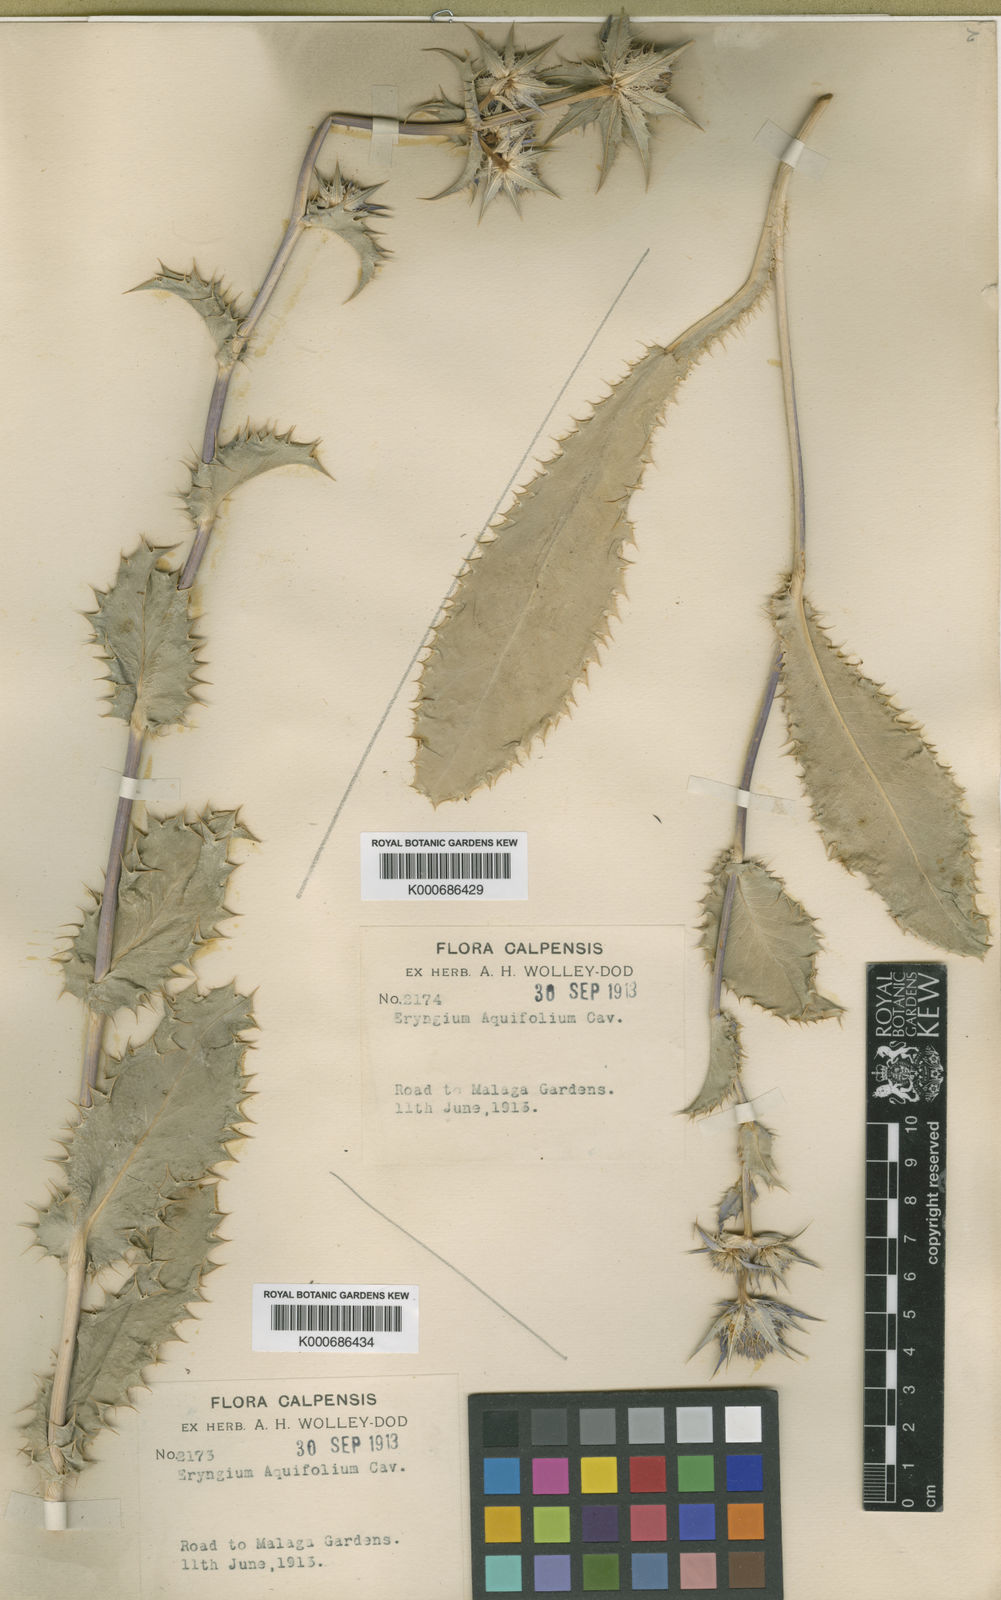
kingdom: Plantae
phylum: Tracheophyta
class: Magnoliopsida
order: Apiales
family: Apiaceae
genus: Eryngium
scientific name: Eryngium aquifolium
